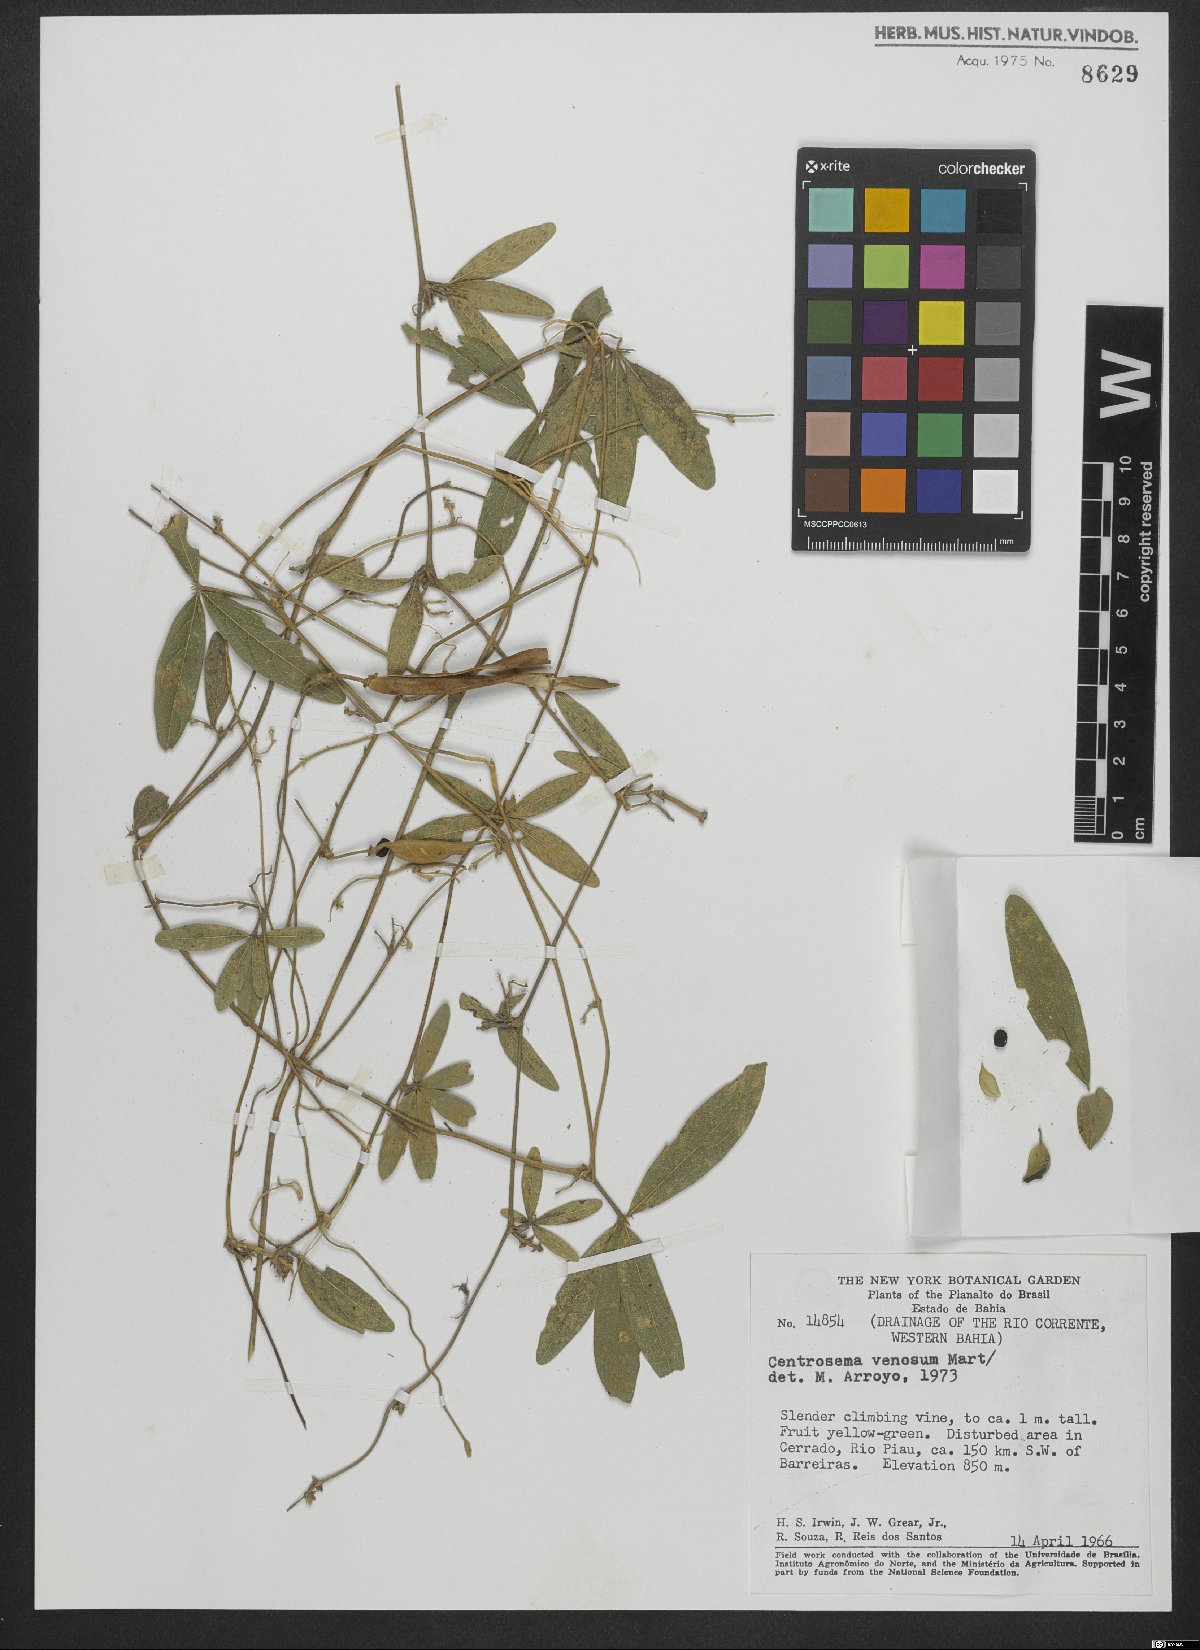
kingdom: Plantae
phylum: Tracheophyta
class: Magnoliopsida
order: Fabales
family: Fabaceae
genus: Centrosema
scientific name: Centrosema venosum
